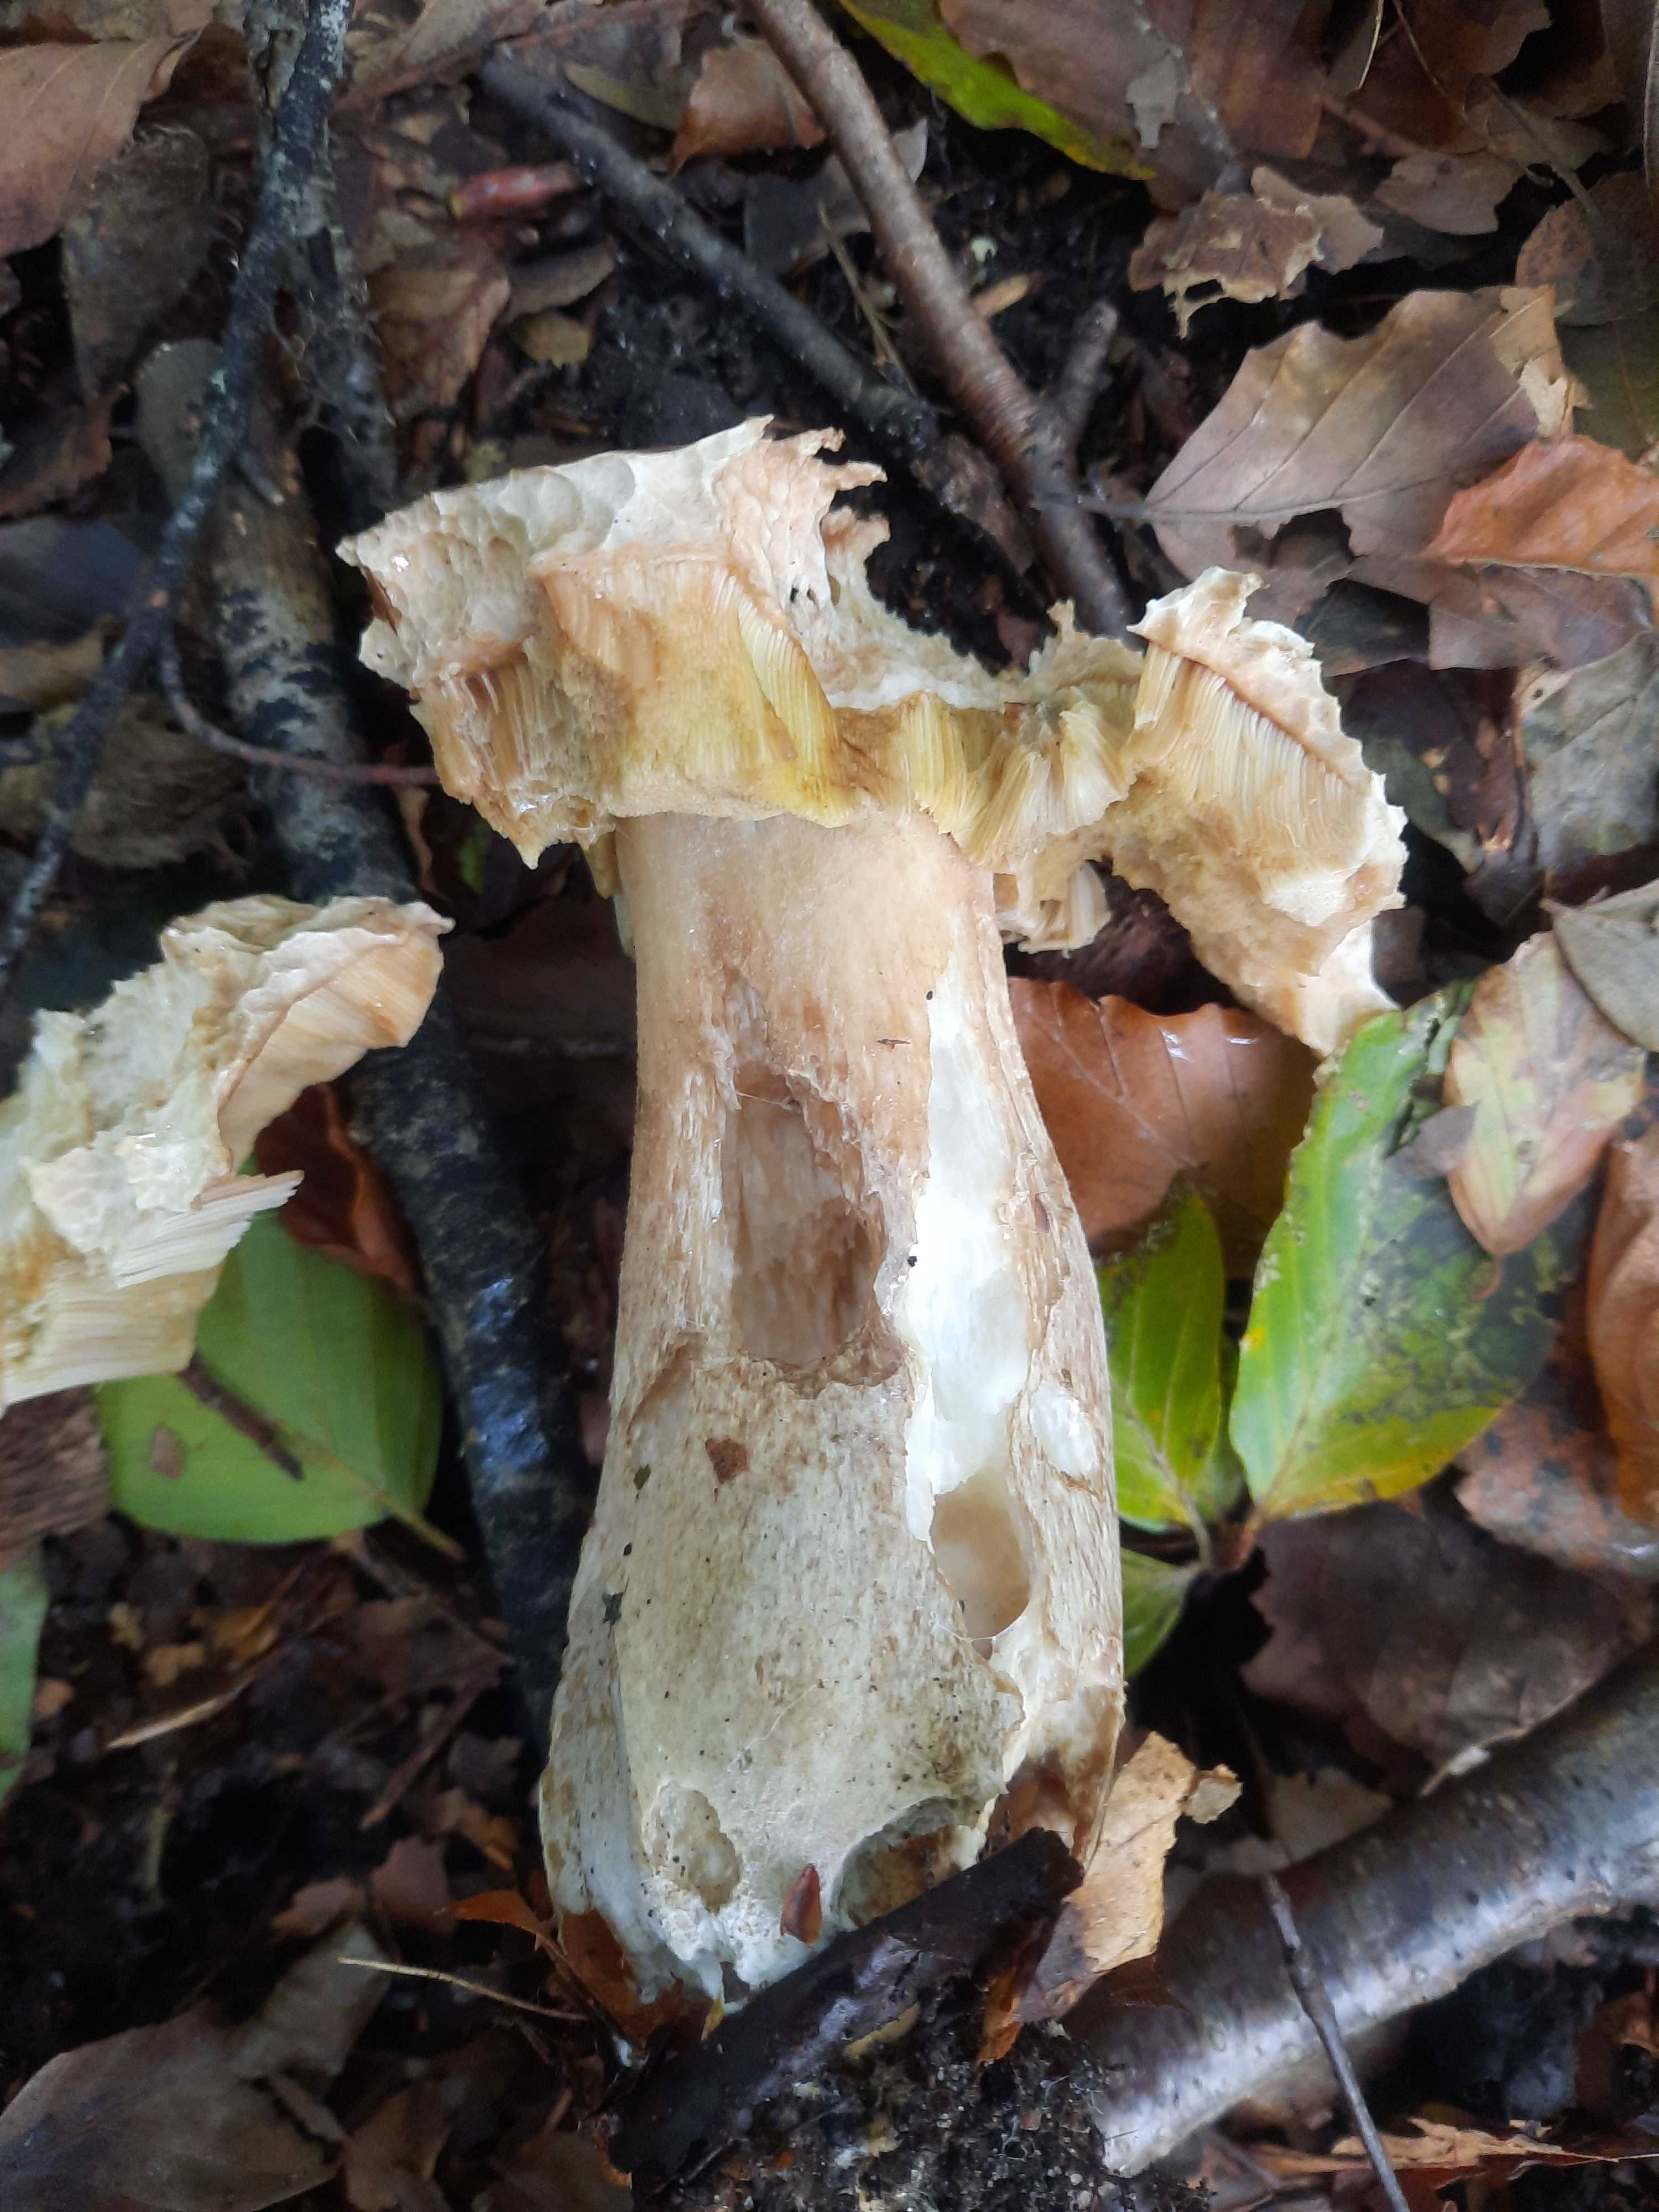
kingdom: Fungi
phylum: Basidiomycota
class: Agaricomycetes
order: Boletales
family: Boletaceae
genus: Boletus
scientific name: Boletus edulis
